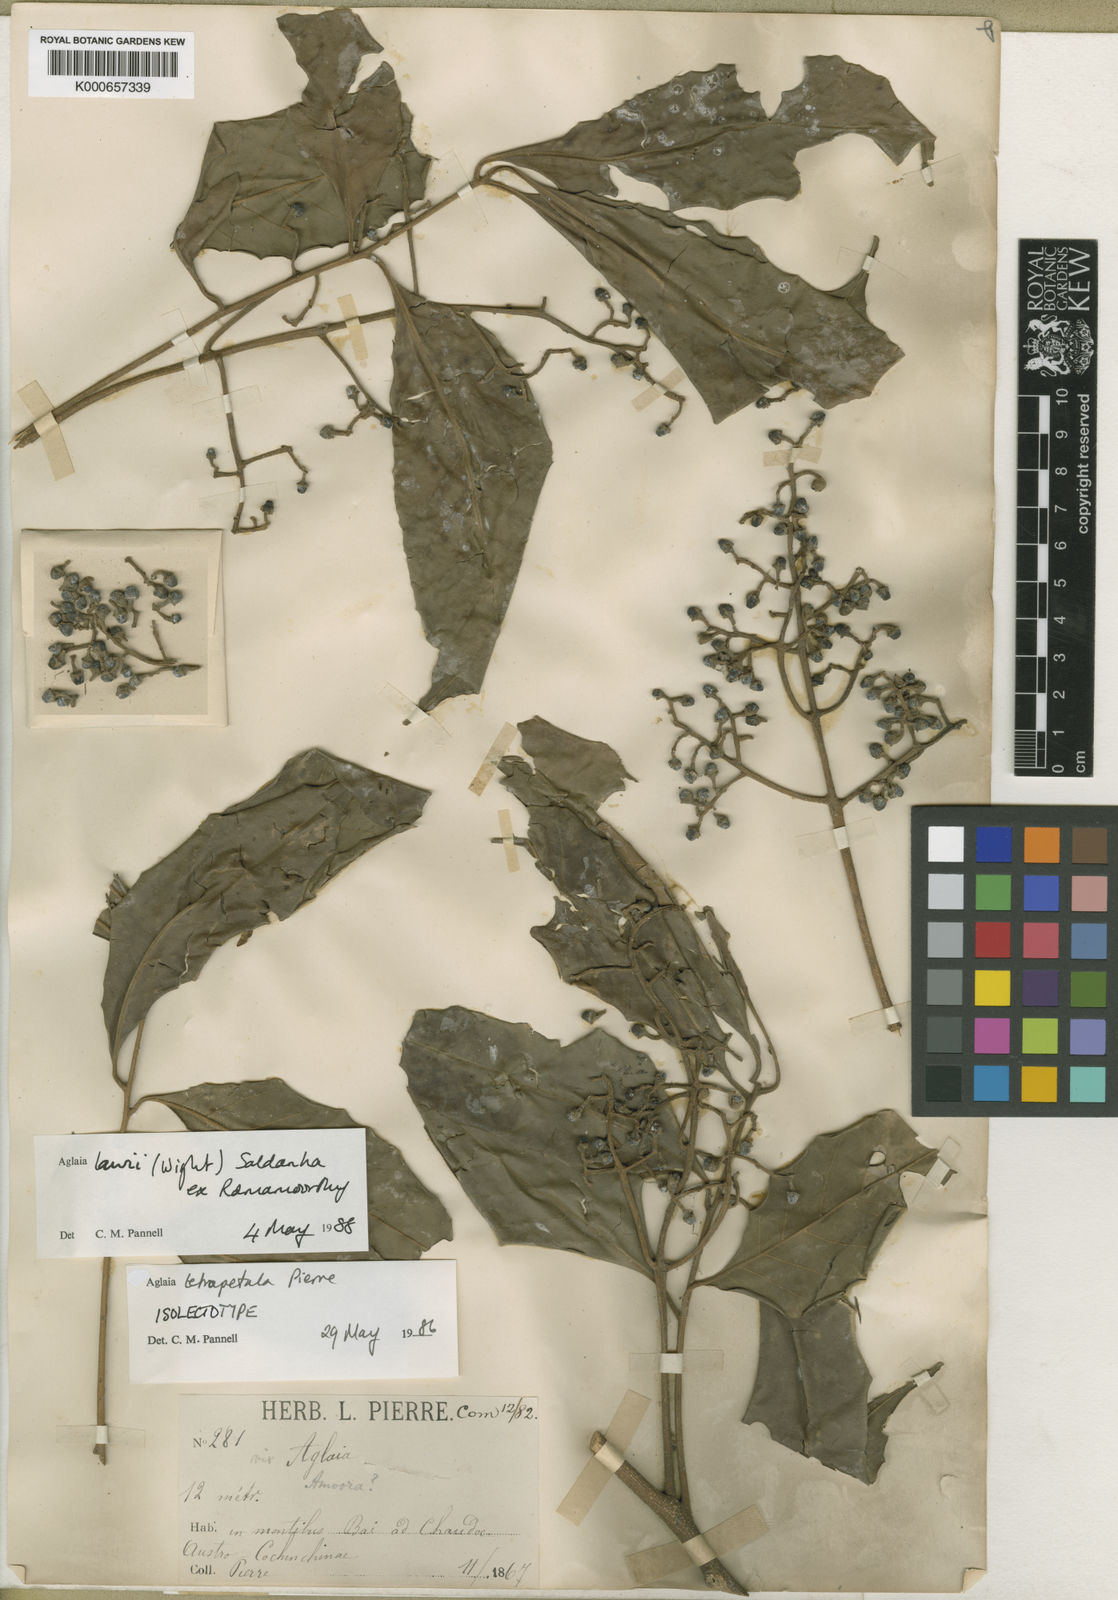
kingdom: Plantae
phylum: Tracheophyta
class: Magnoliopsida
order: Sapindales
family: Meliaceae
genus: Aglaia
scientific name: Aglaia lawii
